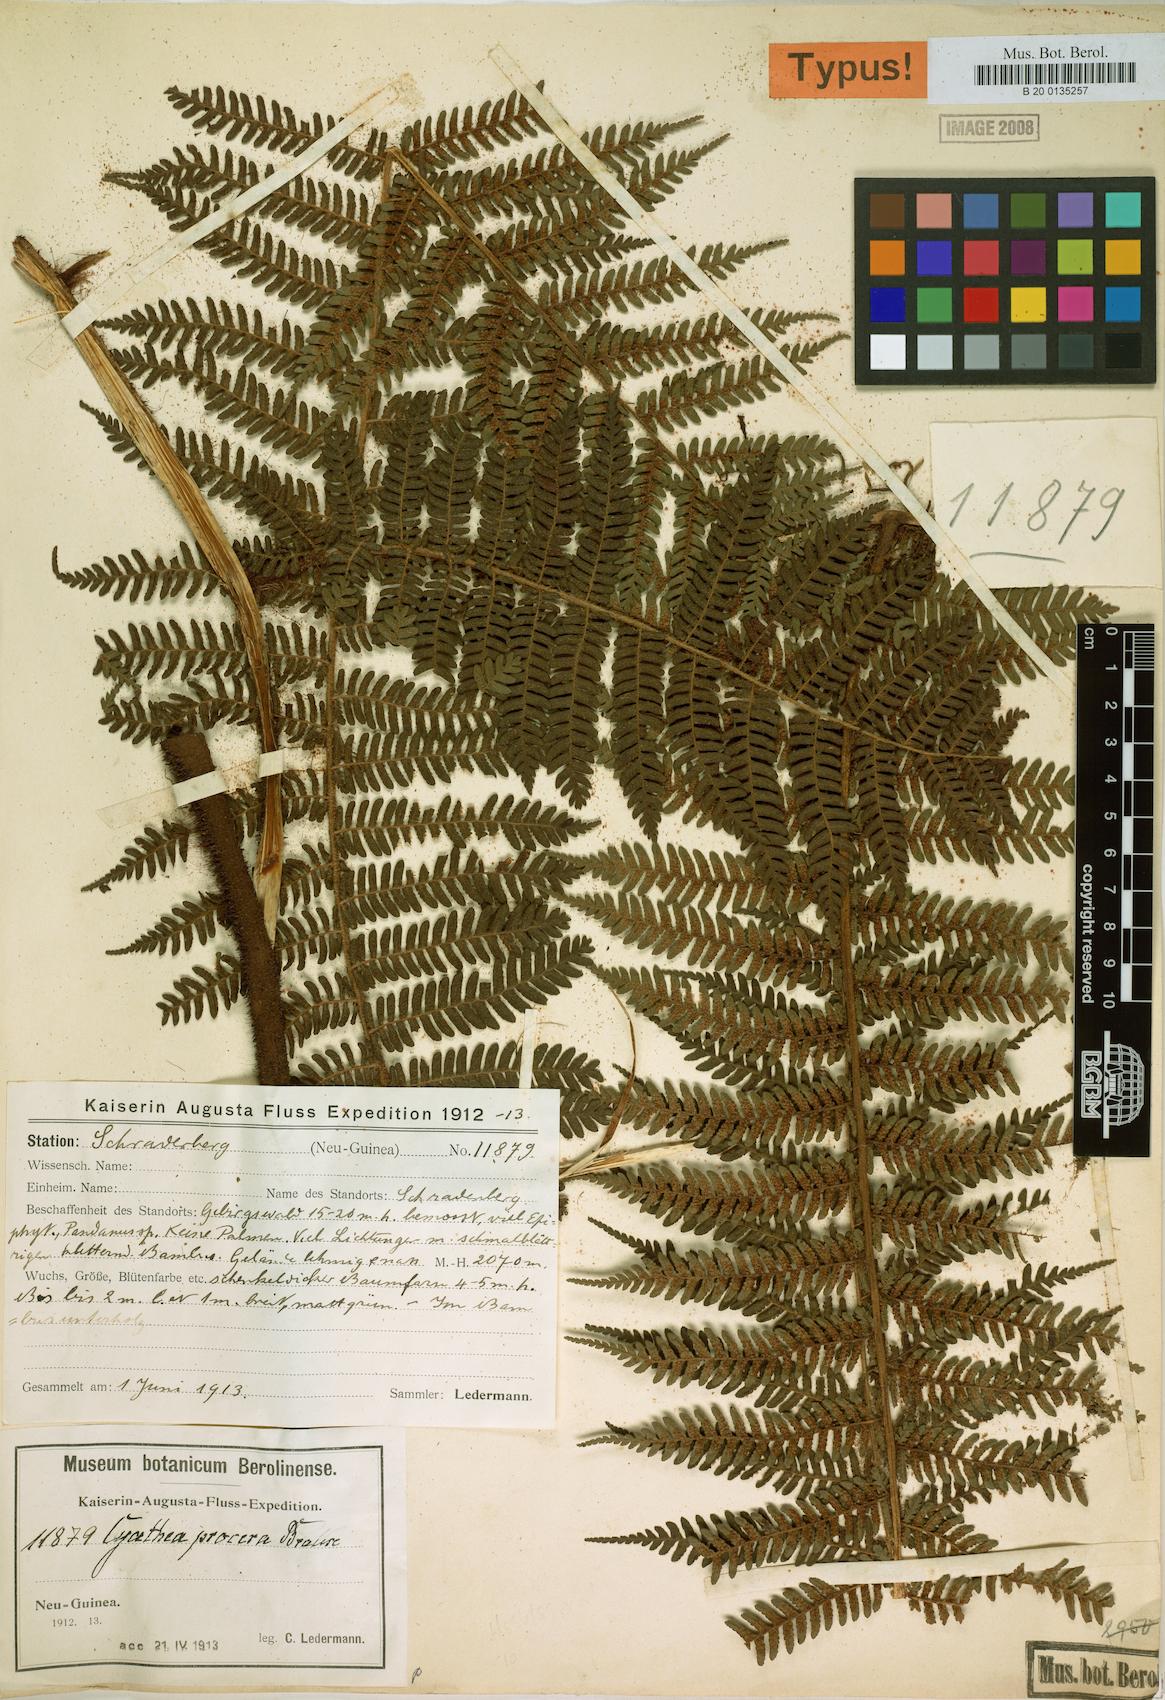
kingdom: Plantae
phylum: Tracheophyta
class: Polypodiopsida
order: Cyatheales
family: Cyatheaceae
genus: Sphaeropteris
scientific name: Sphaeropteris procera
